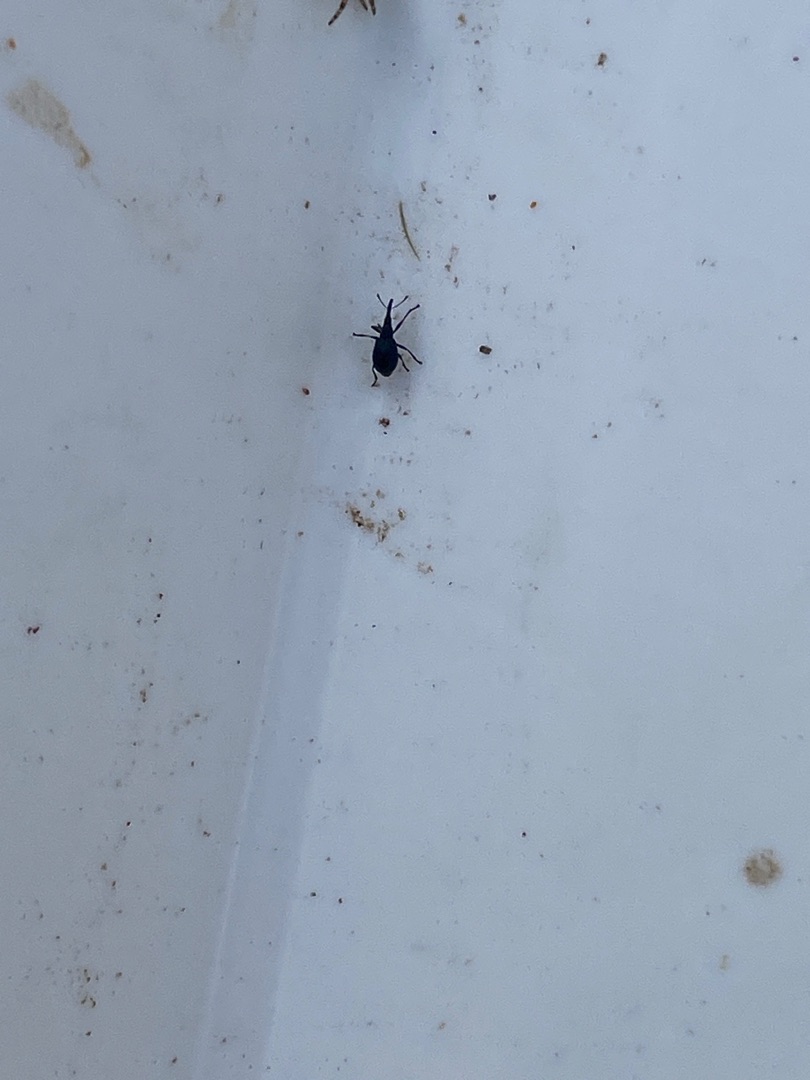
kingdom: Animalia
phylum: Arthropoda
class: Insecta
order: Coleoptera
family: Apionidae
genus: Cyanapion
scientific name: Cyanapion gyllenhalii
